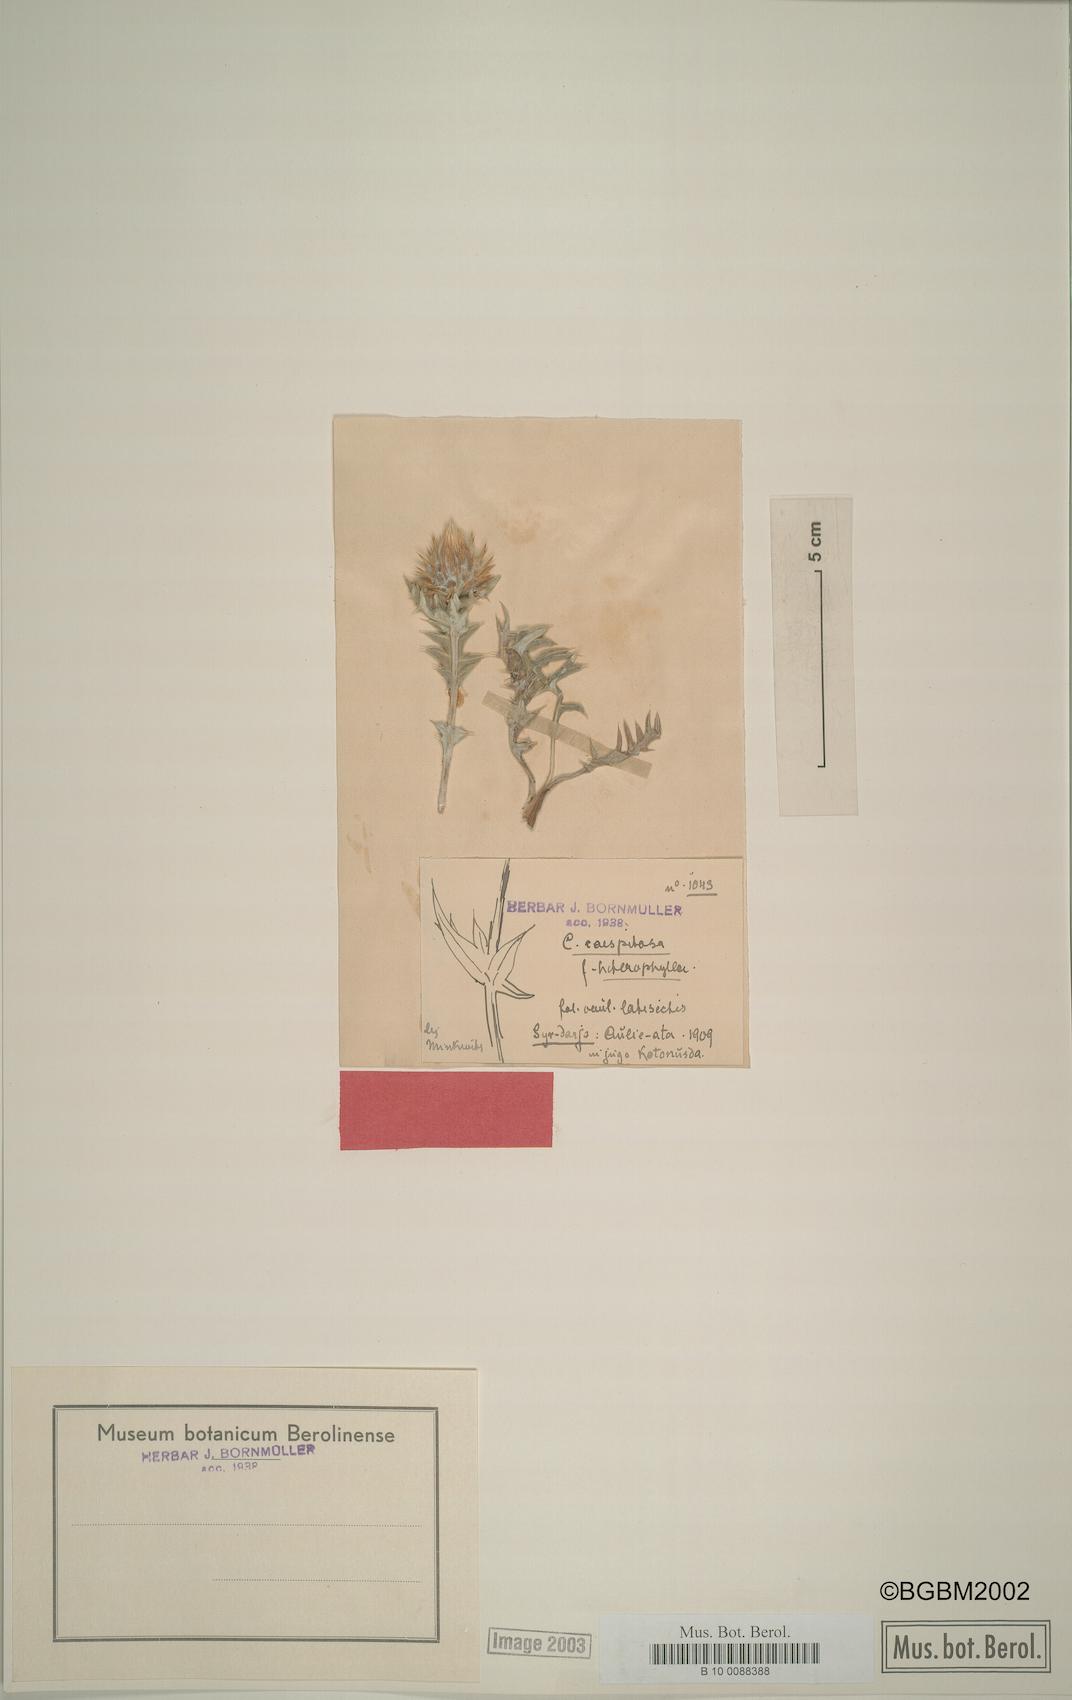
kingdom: Plantae
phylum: Tracheophyta
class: Magnoliopsida
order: Asterales
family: Asteraceae
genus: Cousinia
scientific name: Cousinia caespitosa
